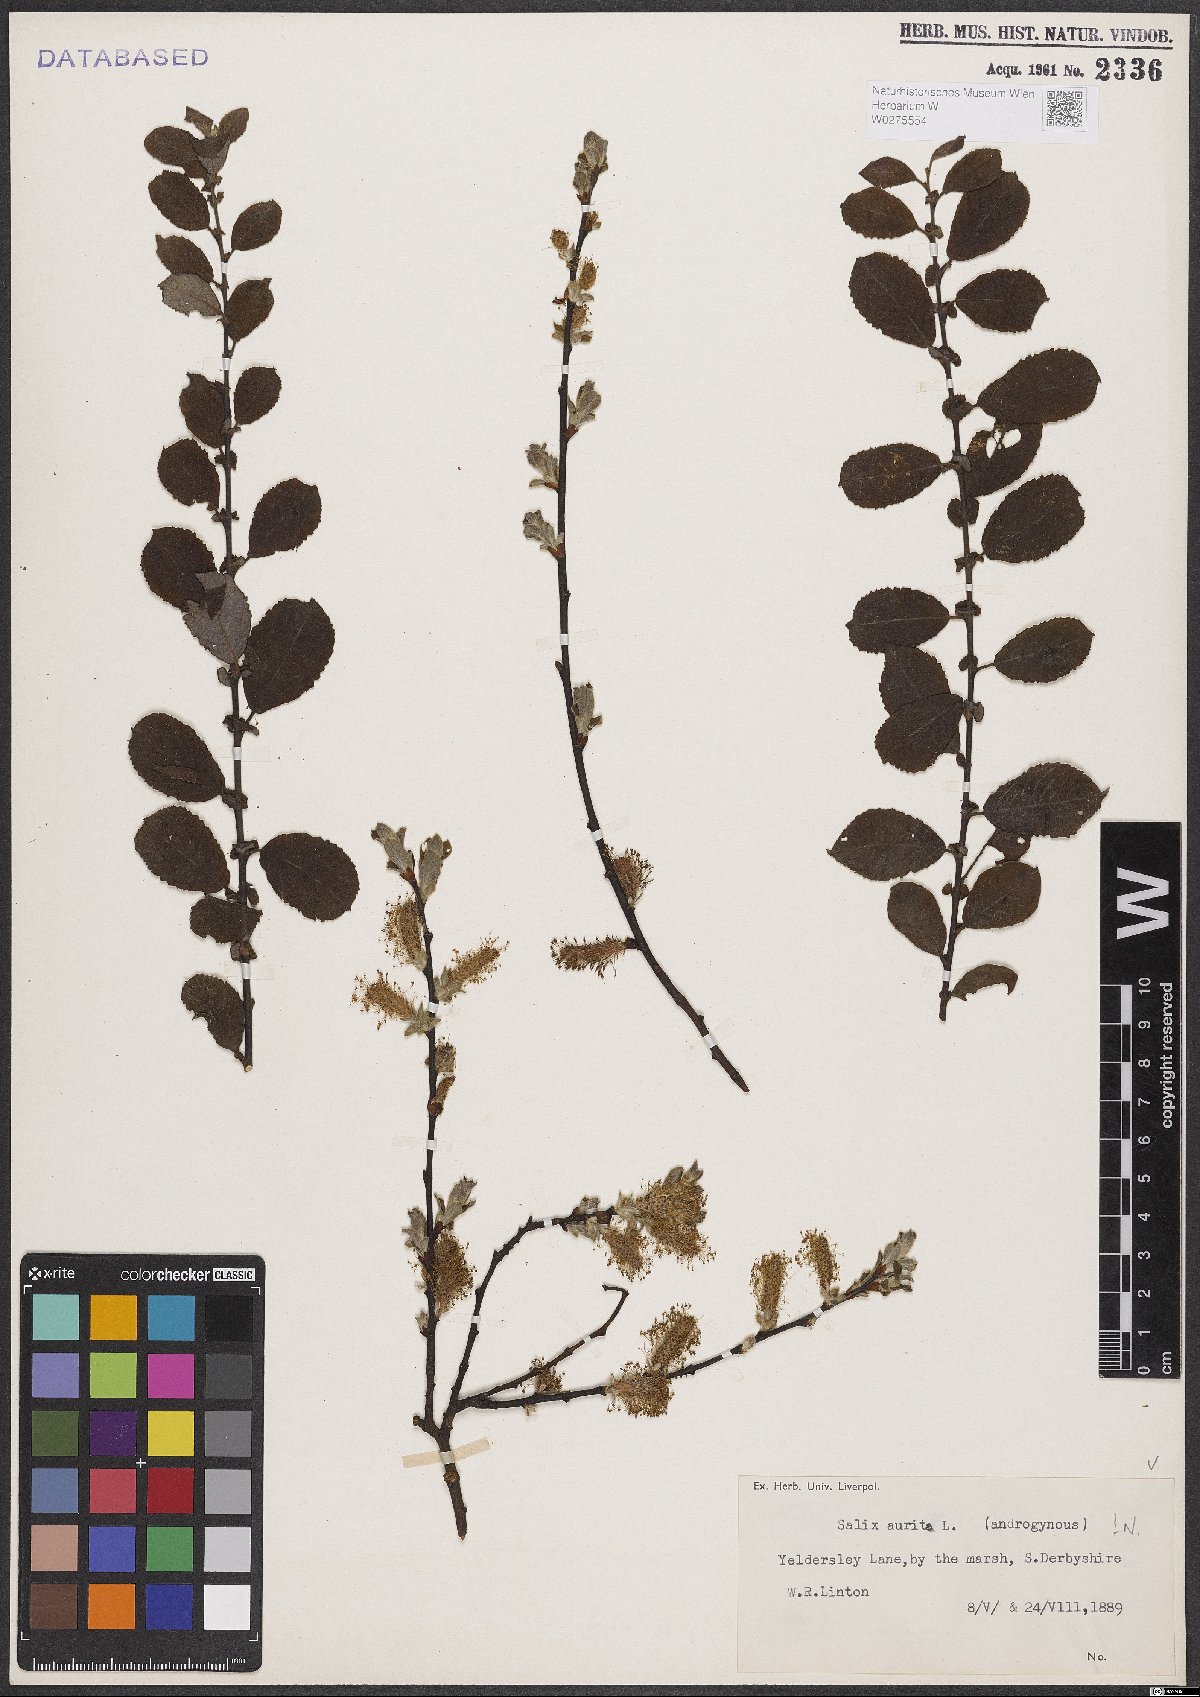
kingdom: Plantae
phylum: Tracheophyta
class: Magnoliopsida
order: Malpighiales
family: Salicaceae
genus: Salix
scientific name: Salix aurita
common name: Eared willow
